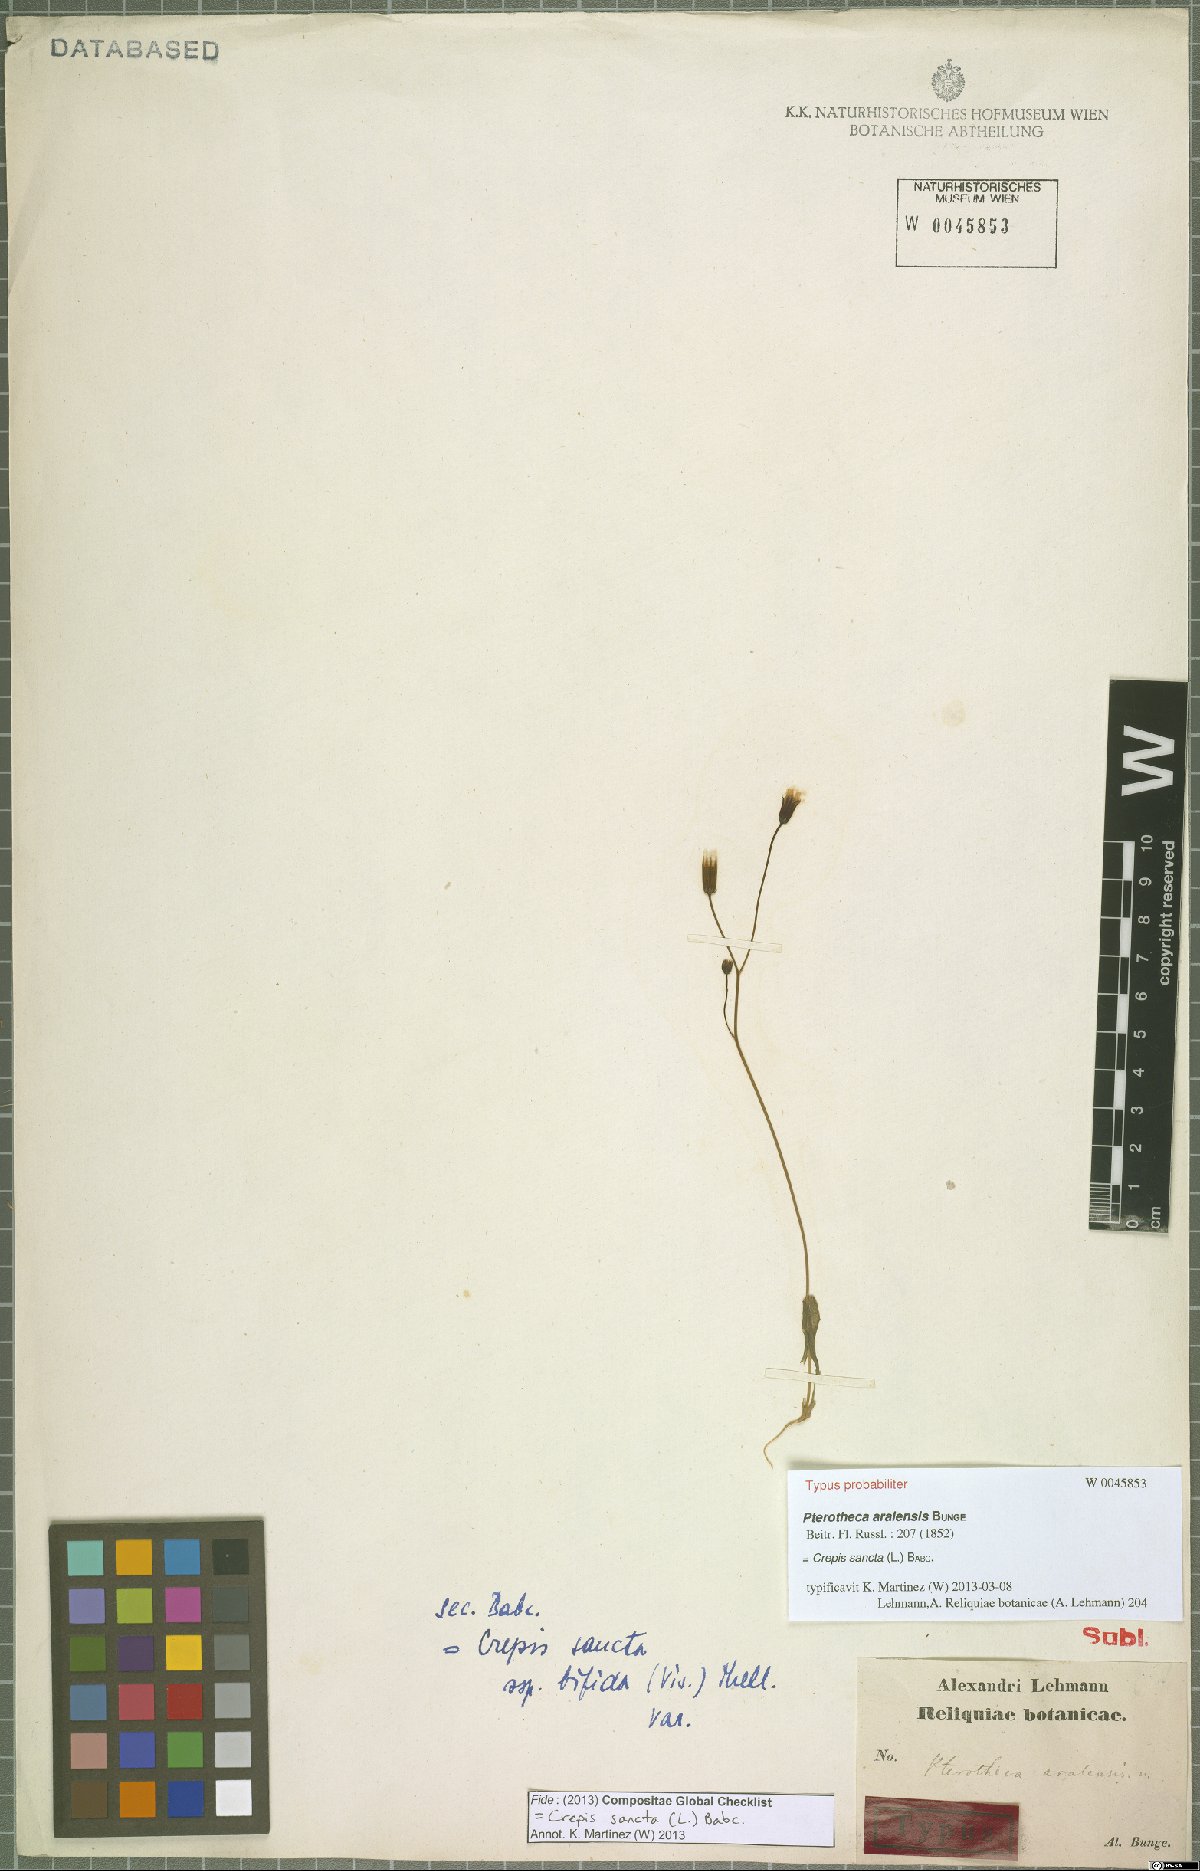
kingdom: Plantae
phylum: Tracheophyta
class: Magnoliopsida
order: Asterales
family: Asteraceae
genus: Crepis
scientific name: Crepis sancta
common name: Hawk's-beard
